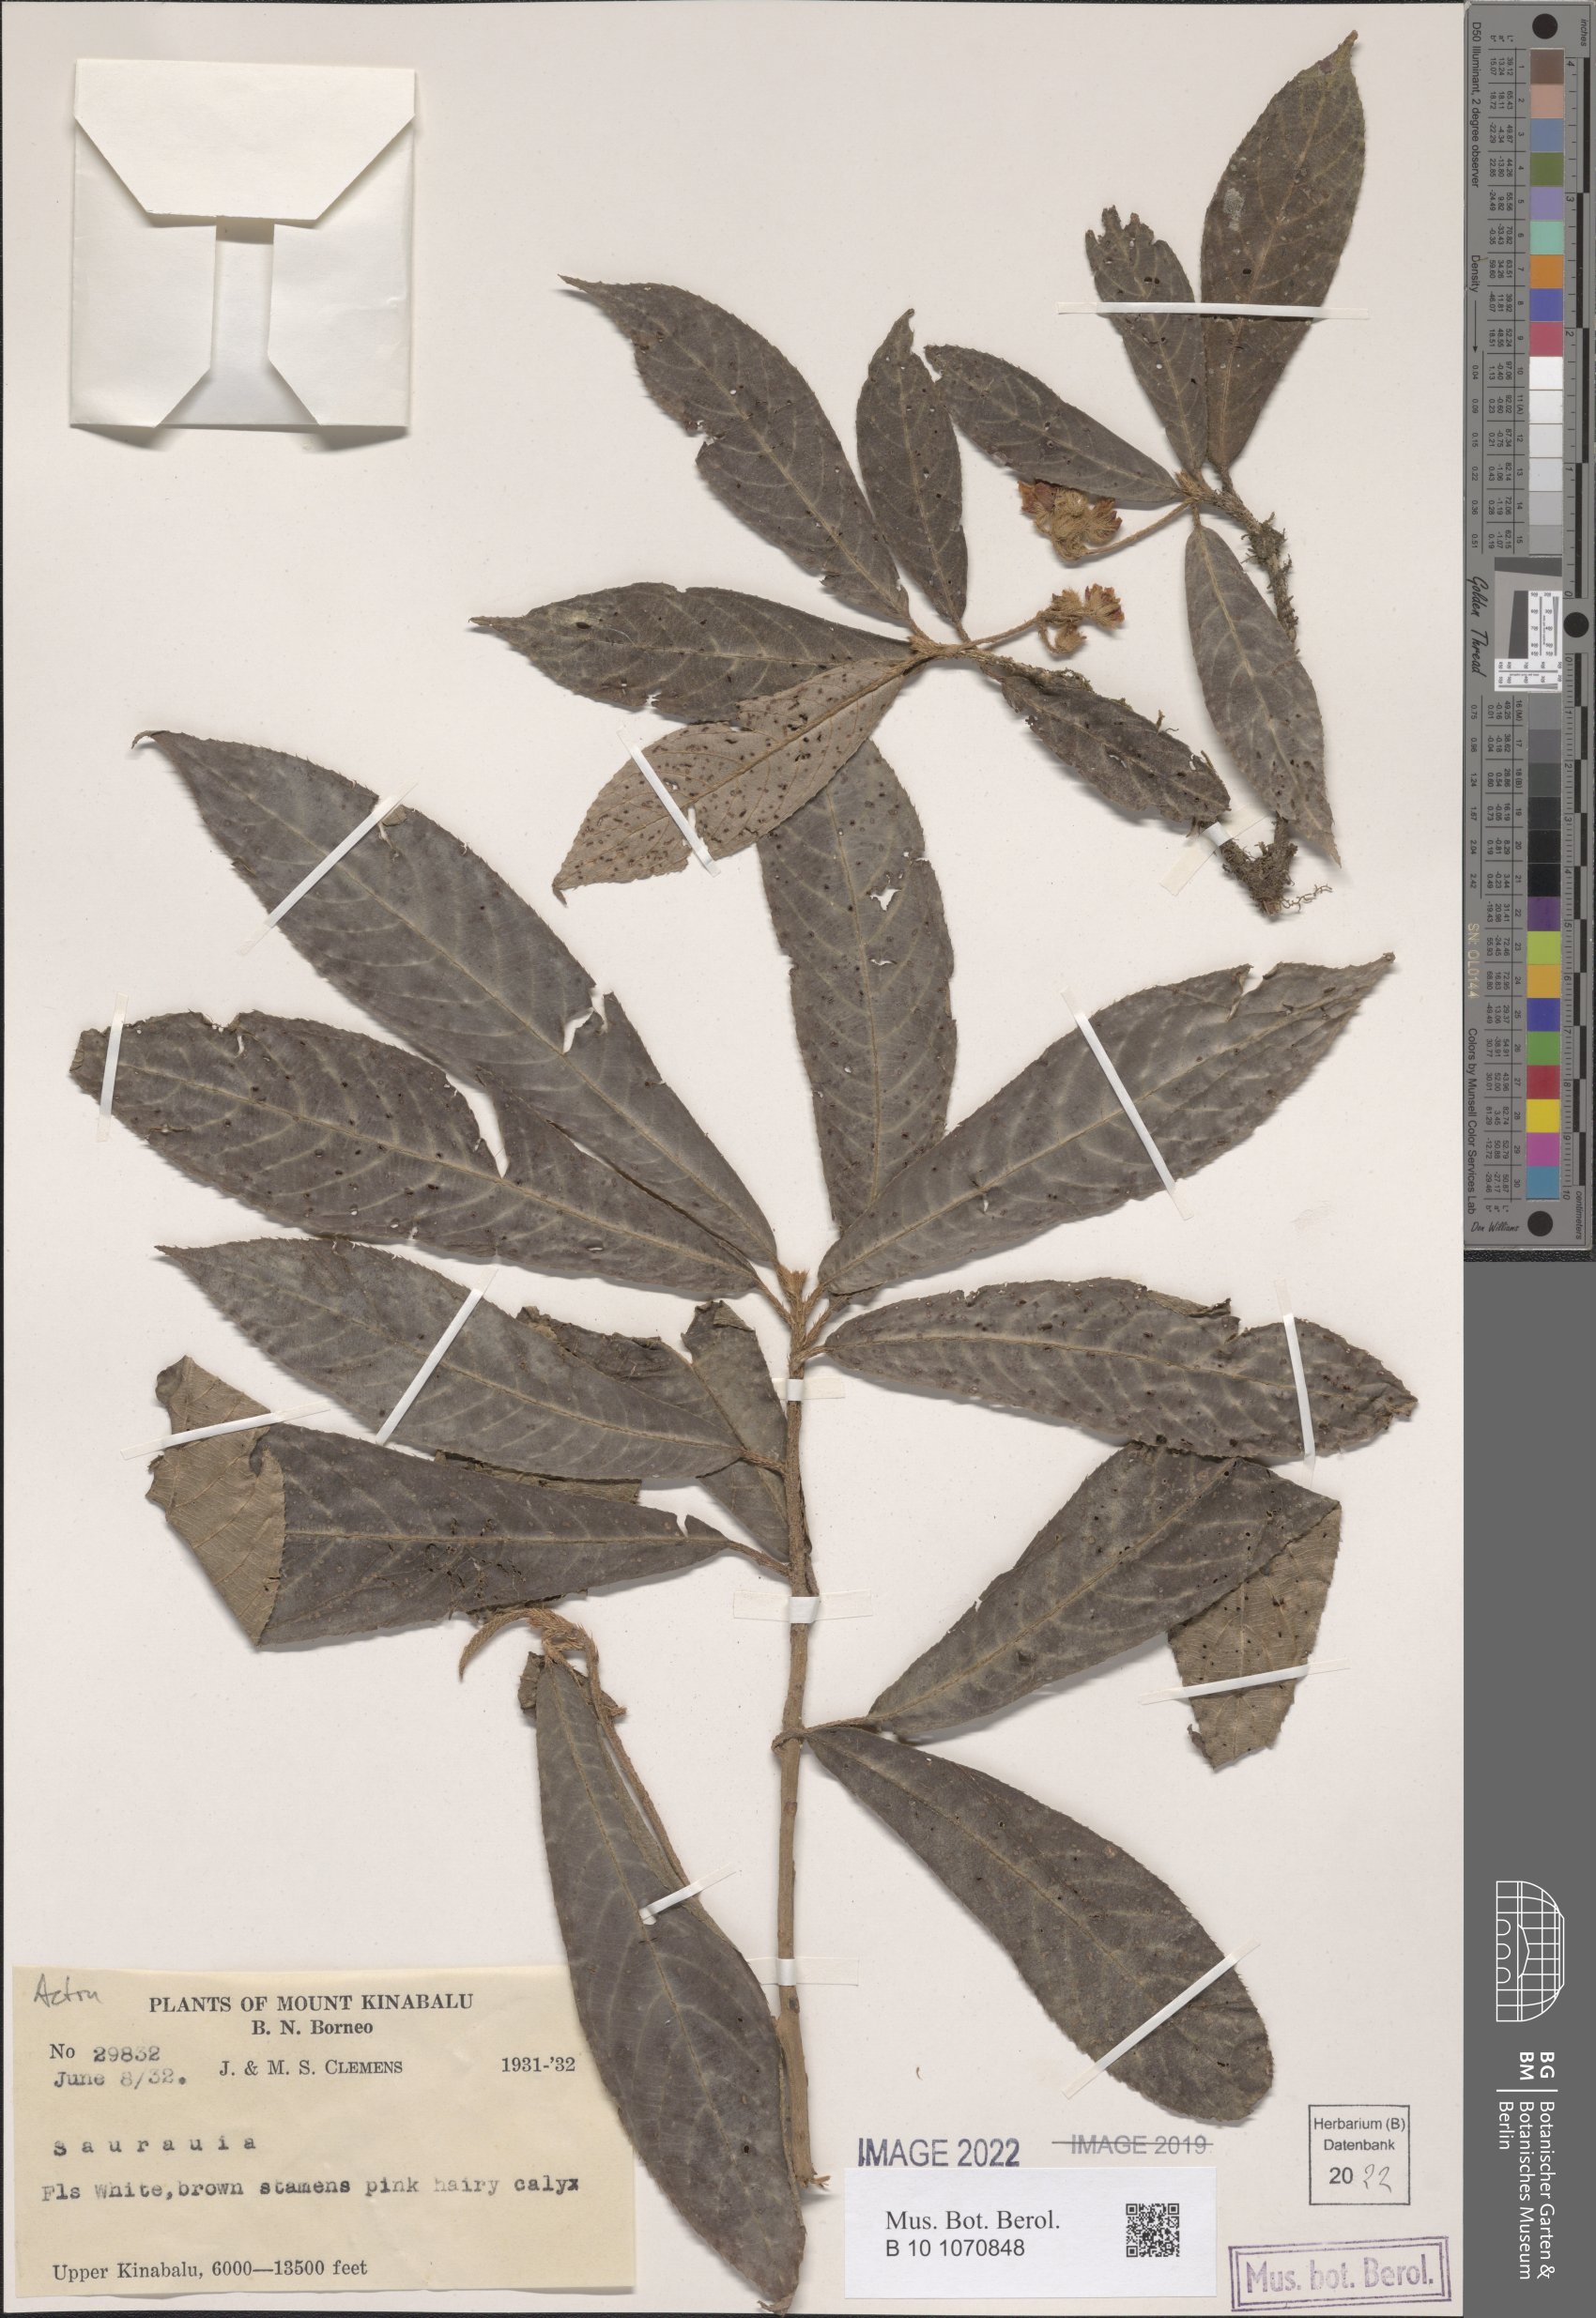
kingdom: Plantae
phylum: Tracheophyta
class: Magnoliopsida
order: Ericales
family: Actinidiaceae
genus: Saurauia
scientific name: Saurauia
